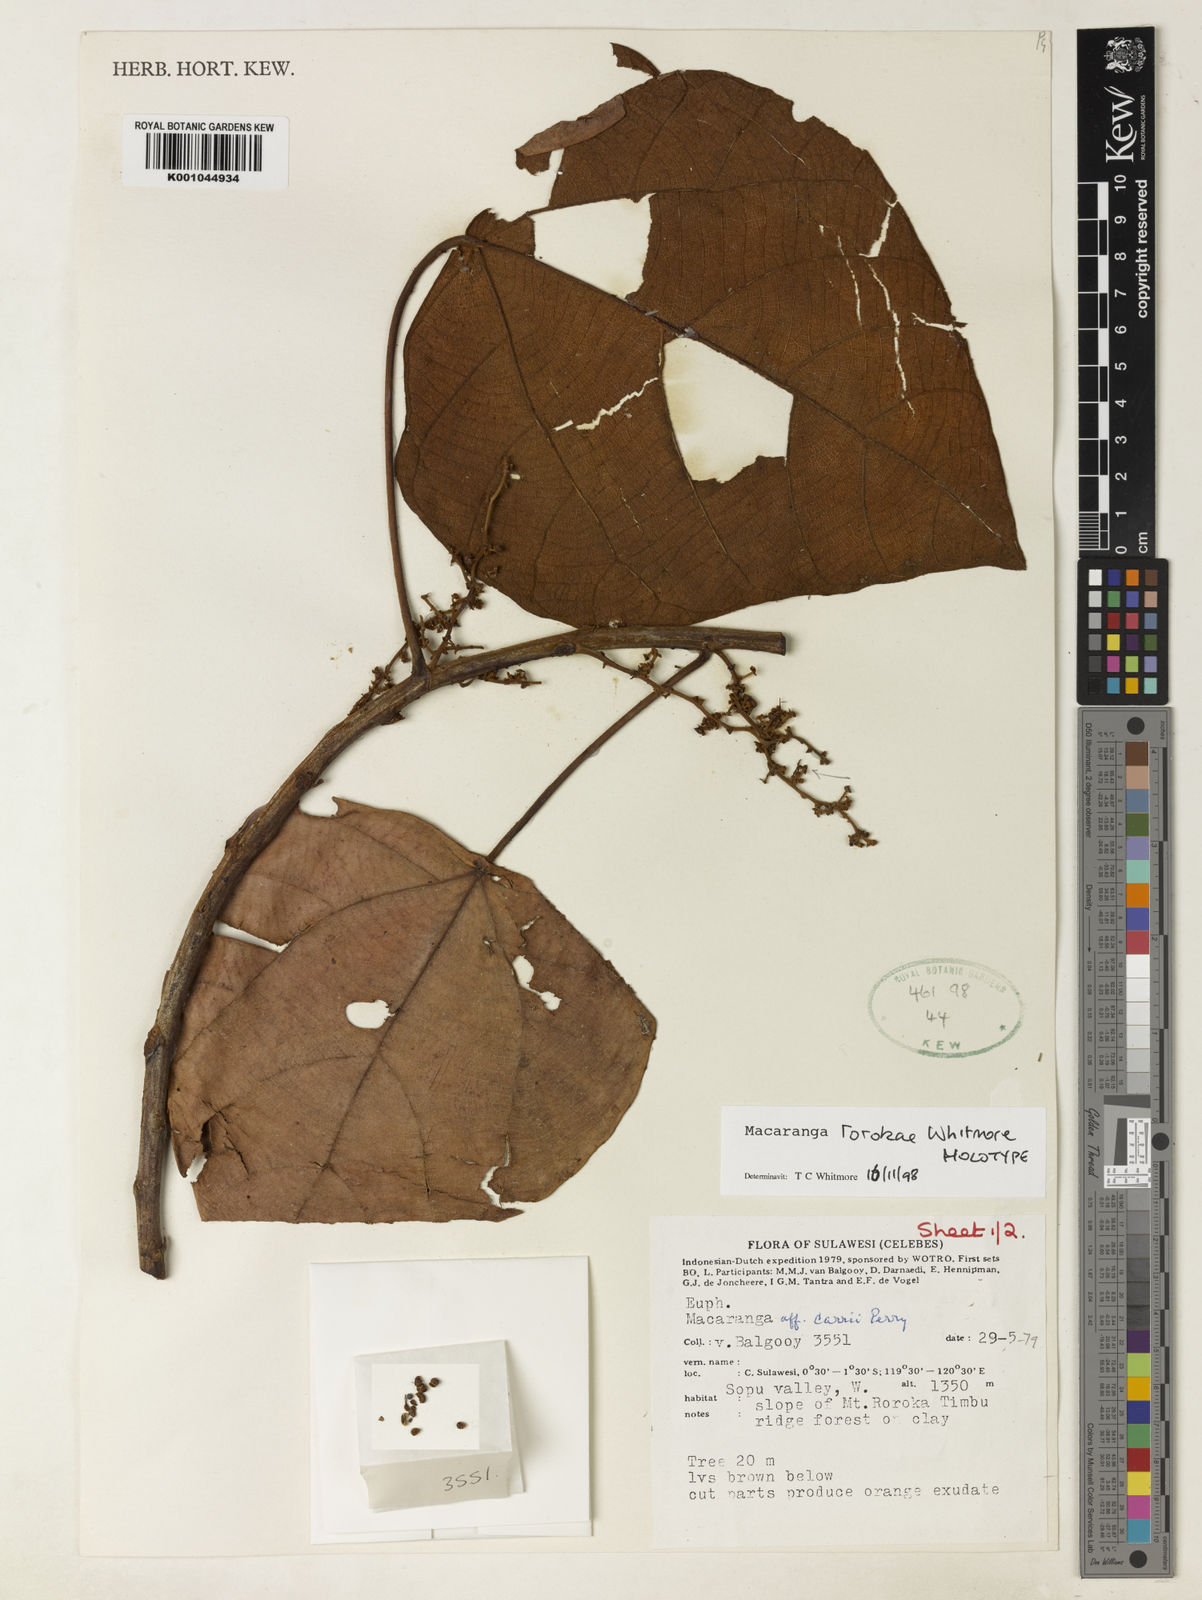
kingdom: Plantae
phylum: Tracheophyta
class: Magnoliopsida
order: Malpighiales
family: Euphorbiaceae
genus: Macaranga
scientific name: Macaranga rorokae
